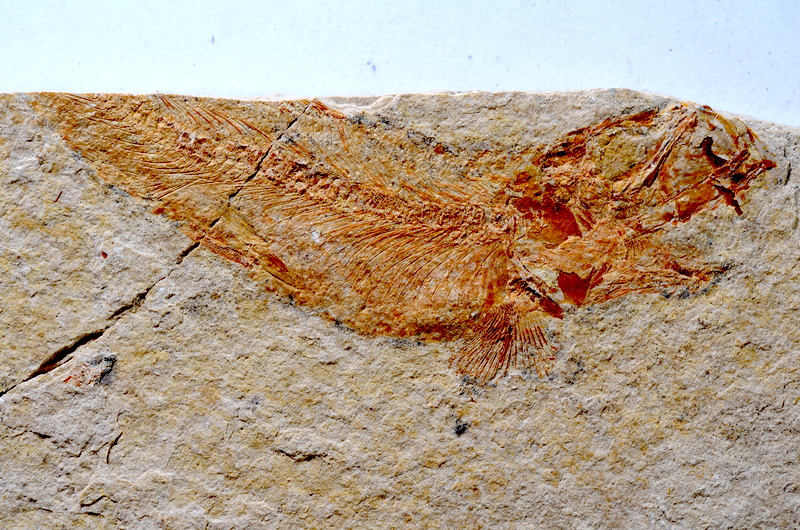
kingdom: Animalia
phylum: Chordata
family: Ascalaboidae
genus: Tharsis
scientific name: Tharsis dubius
